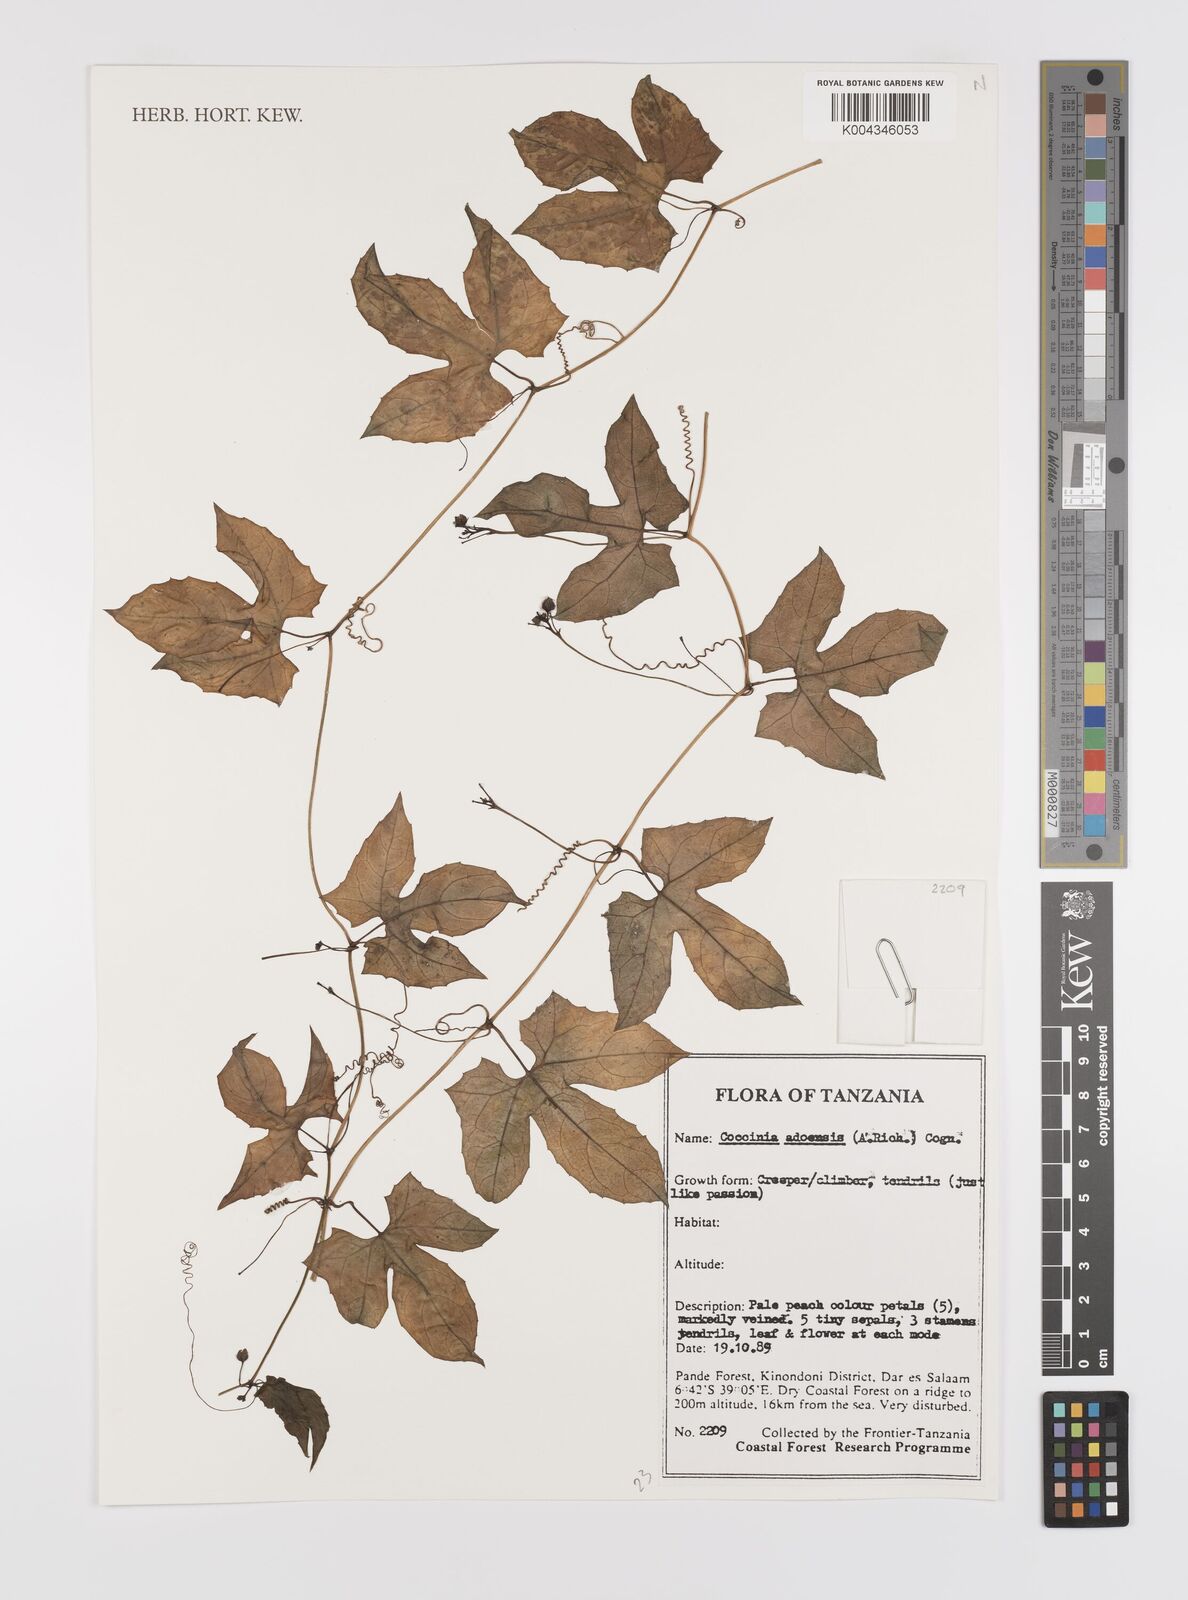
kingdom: Plantae
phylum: Tracheophyta
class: Magnoliopsida
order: Cucurbitales
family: Cucurbitaceae
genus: Coccinia
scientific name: Coccinia adoensis
